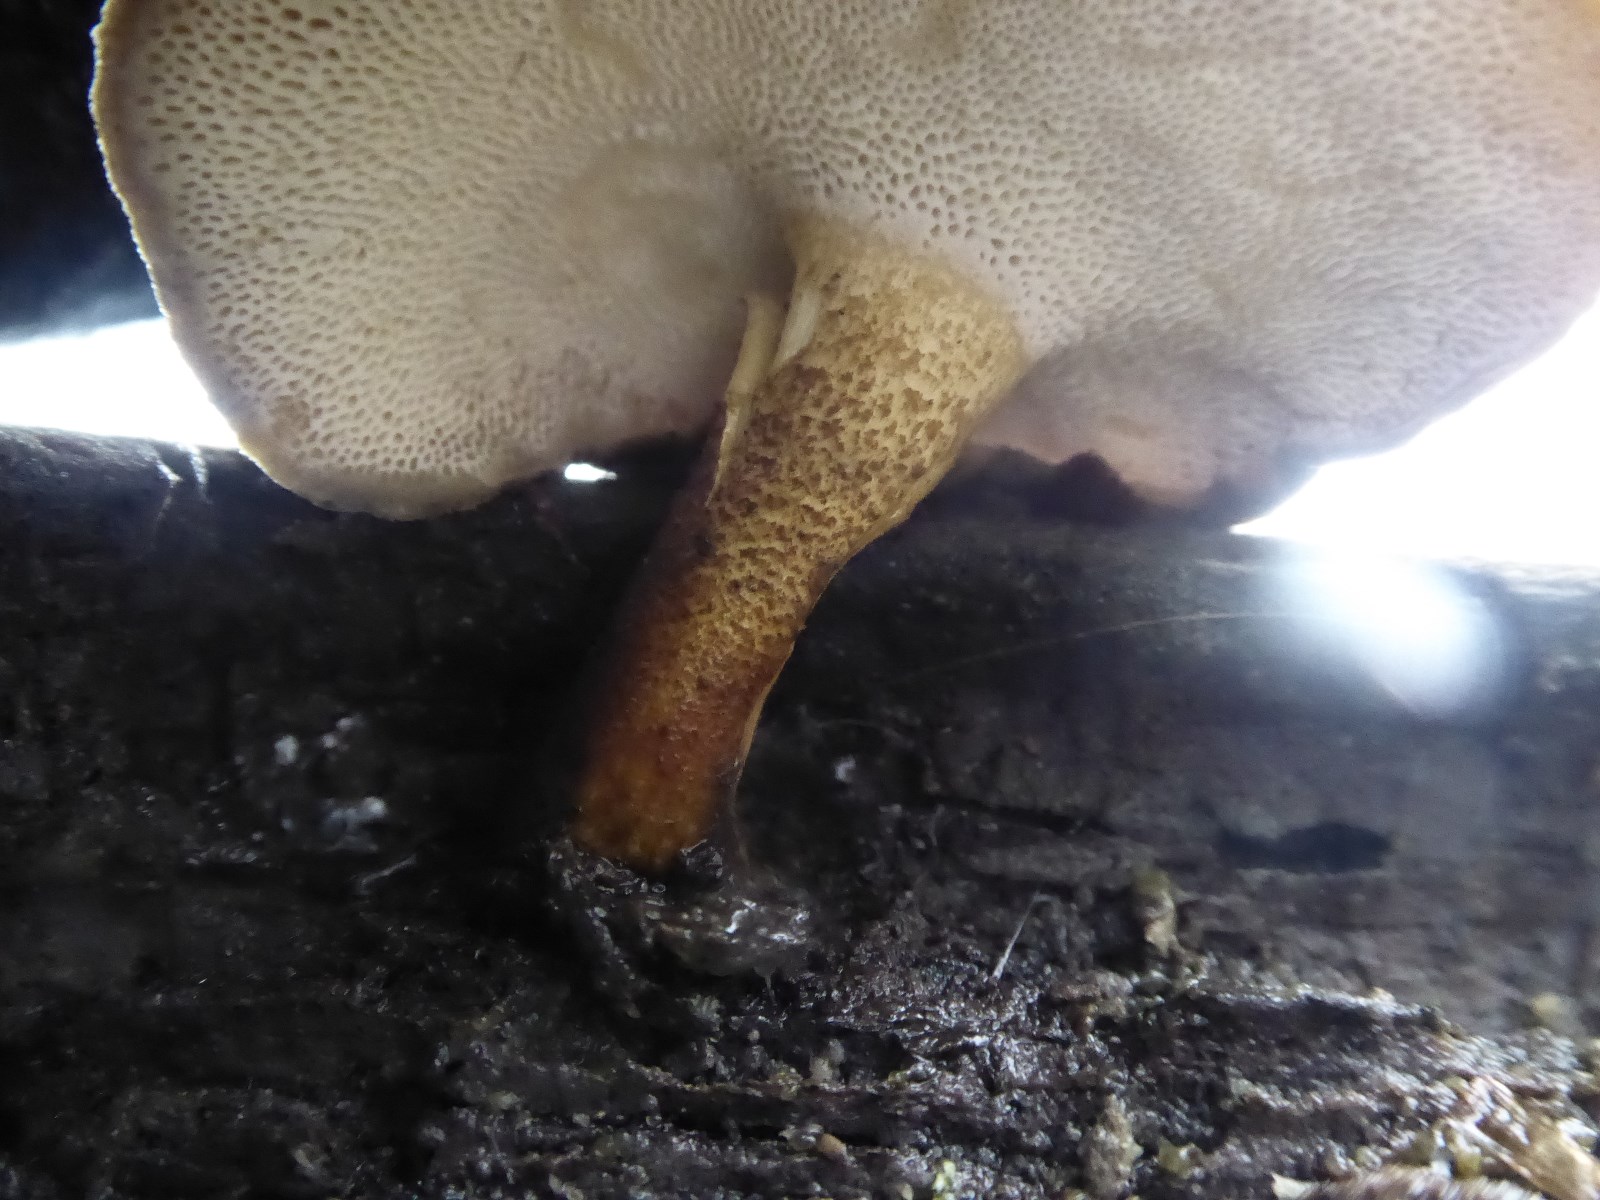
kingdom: Fungi
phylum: Basidiomycota
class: Agaricomycetes
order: Polyporales
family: Polyporaceae
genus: Lentinus
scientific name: Lentinus brumalis
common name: vinter-stilkporesvamp
